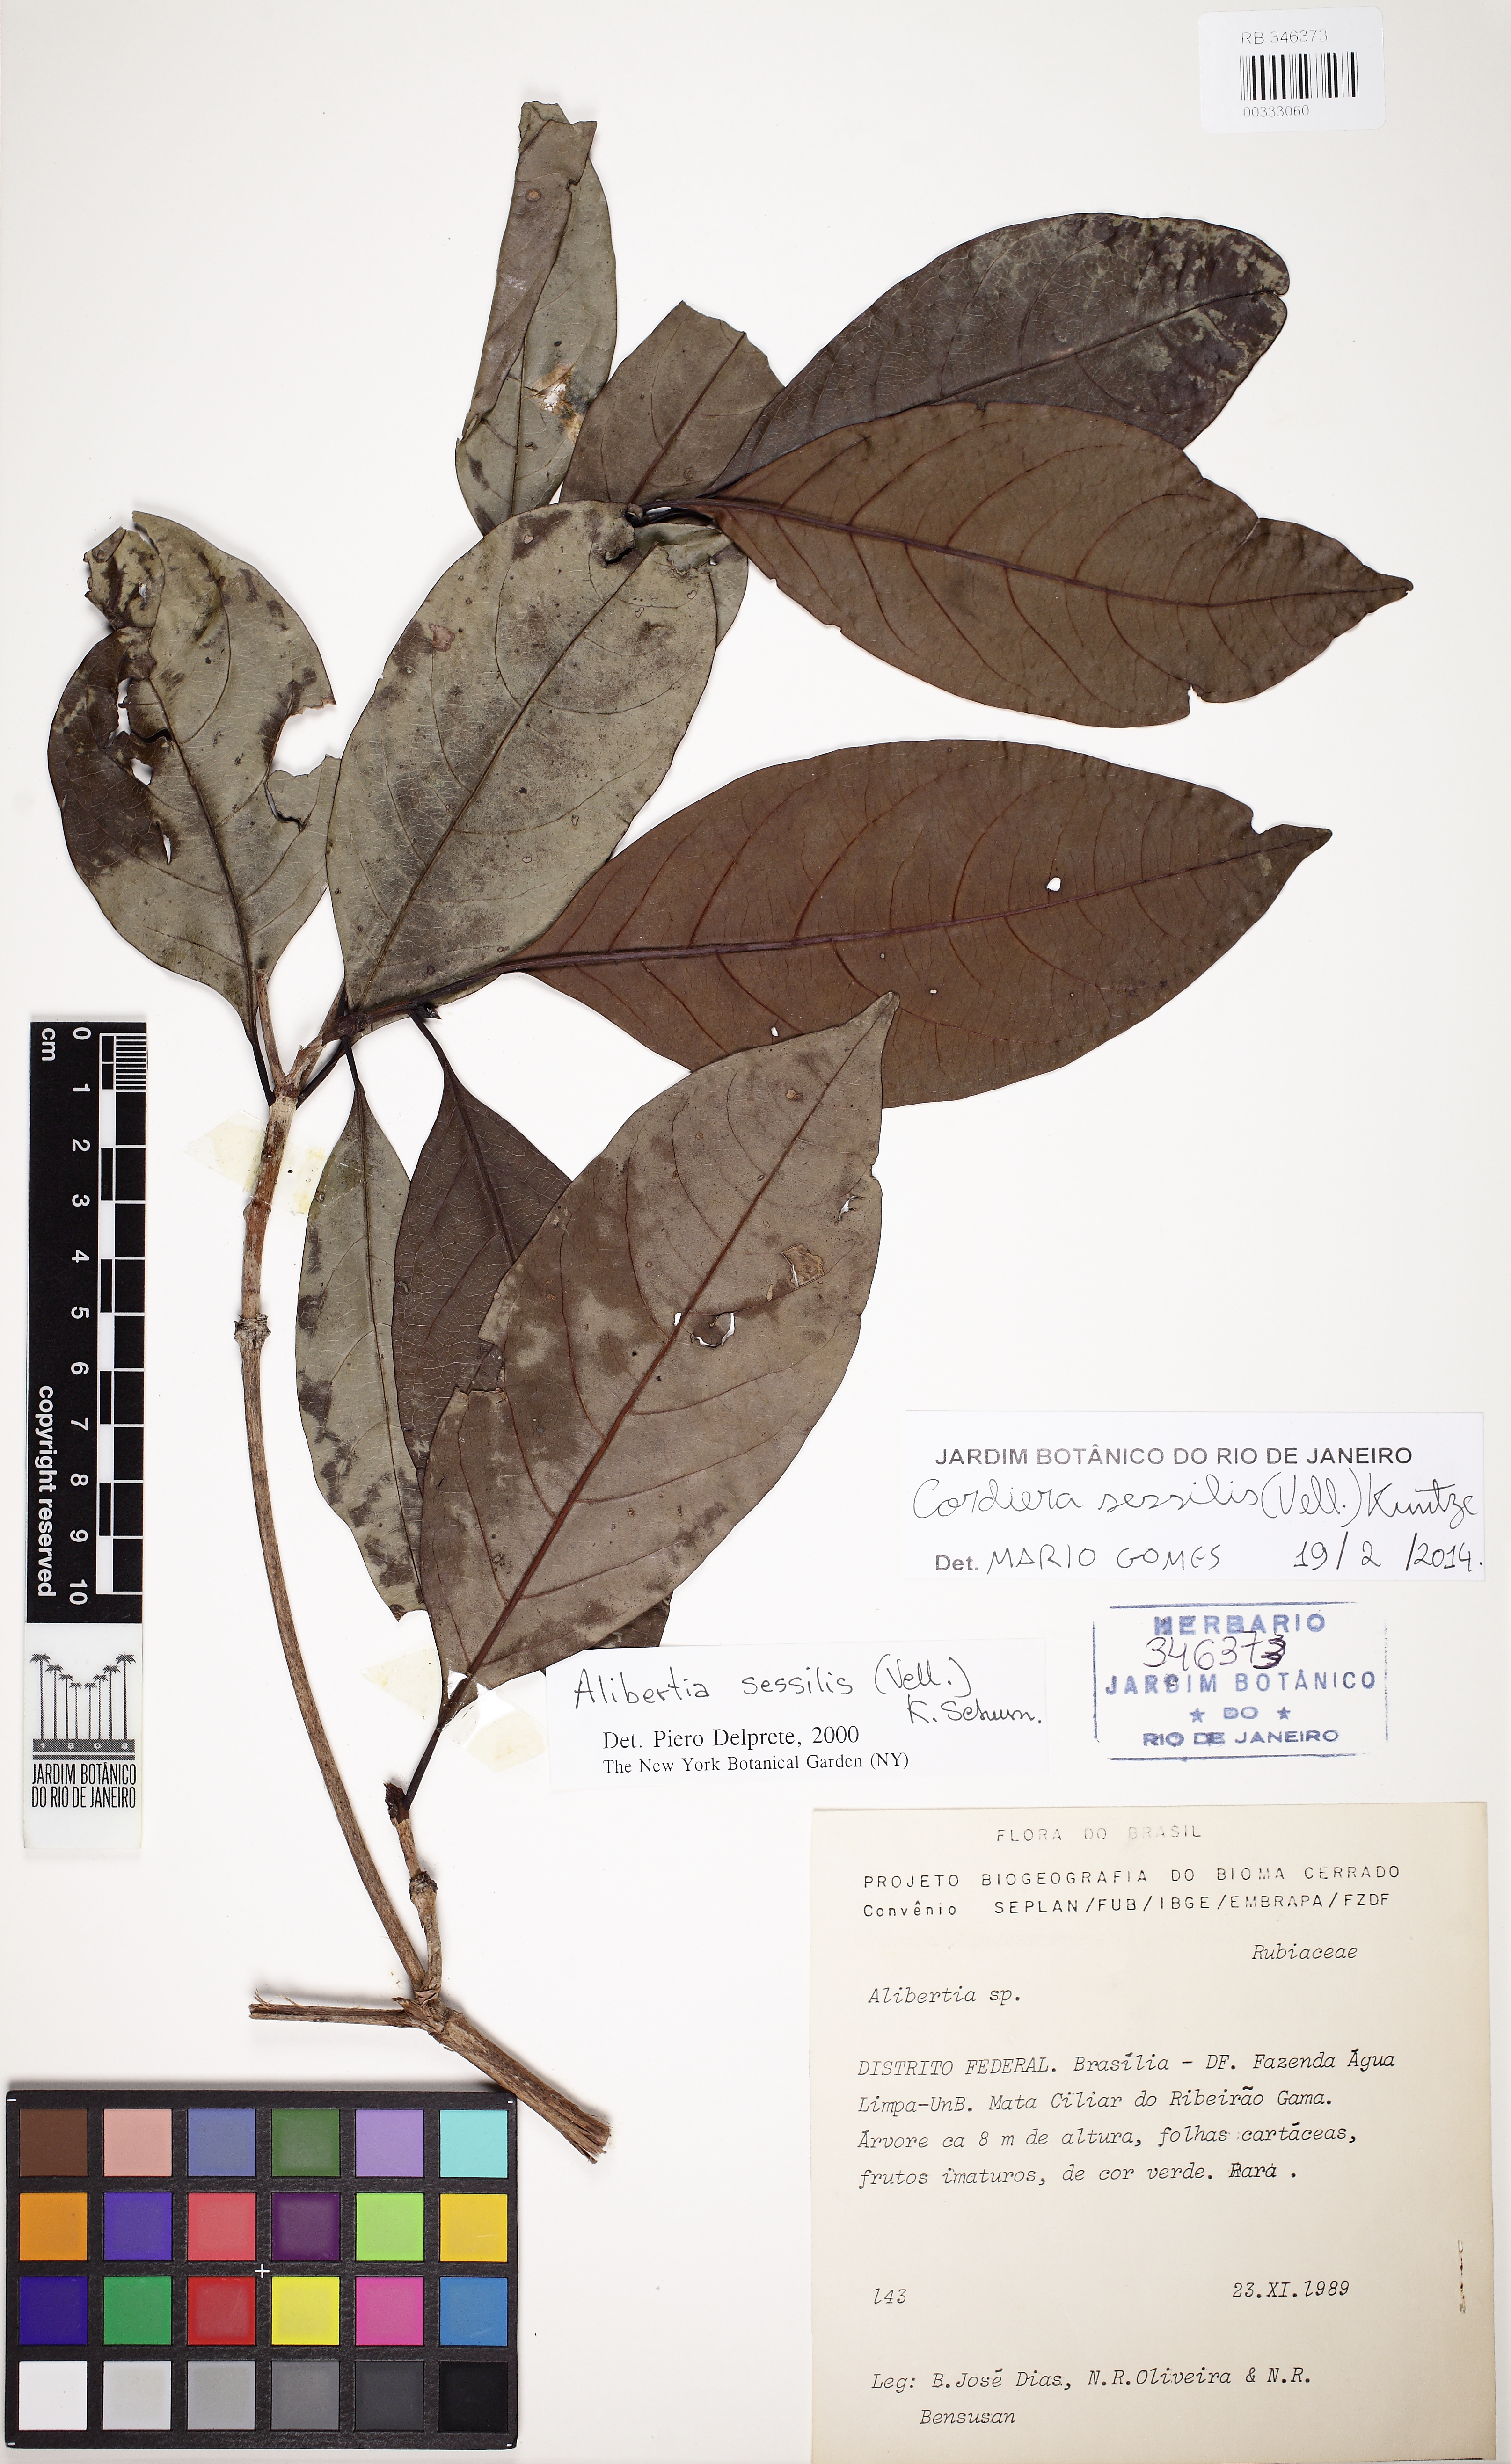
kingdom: Plantae
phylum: Tracheophyta
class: Magnoliopsida
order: Gentianales
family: Rubiaceae
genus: Cordiera
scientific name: Cordiera sessilis
